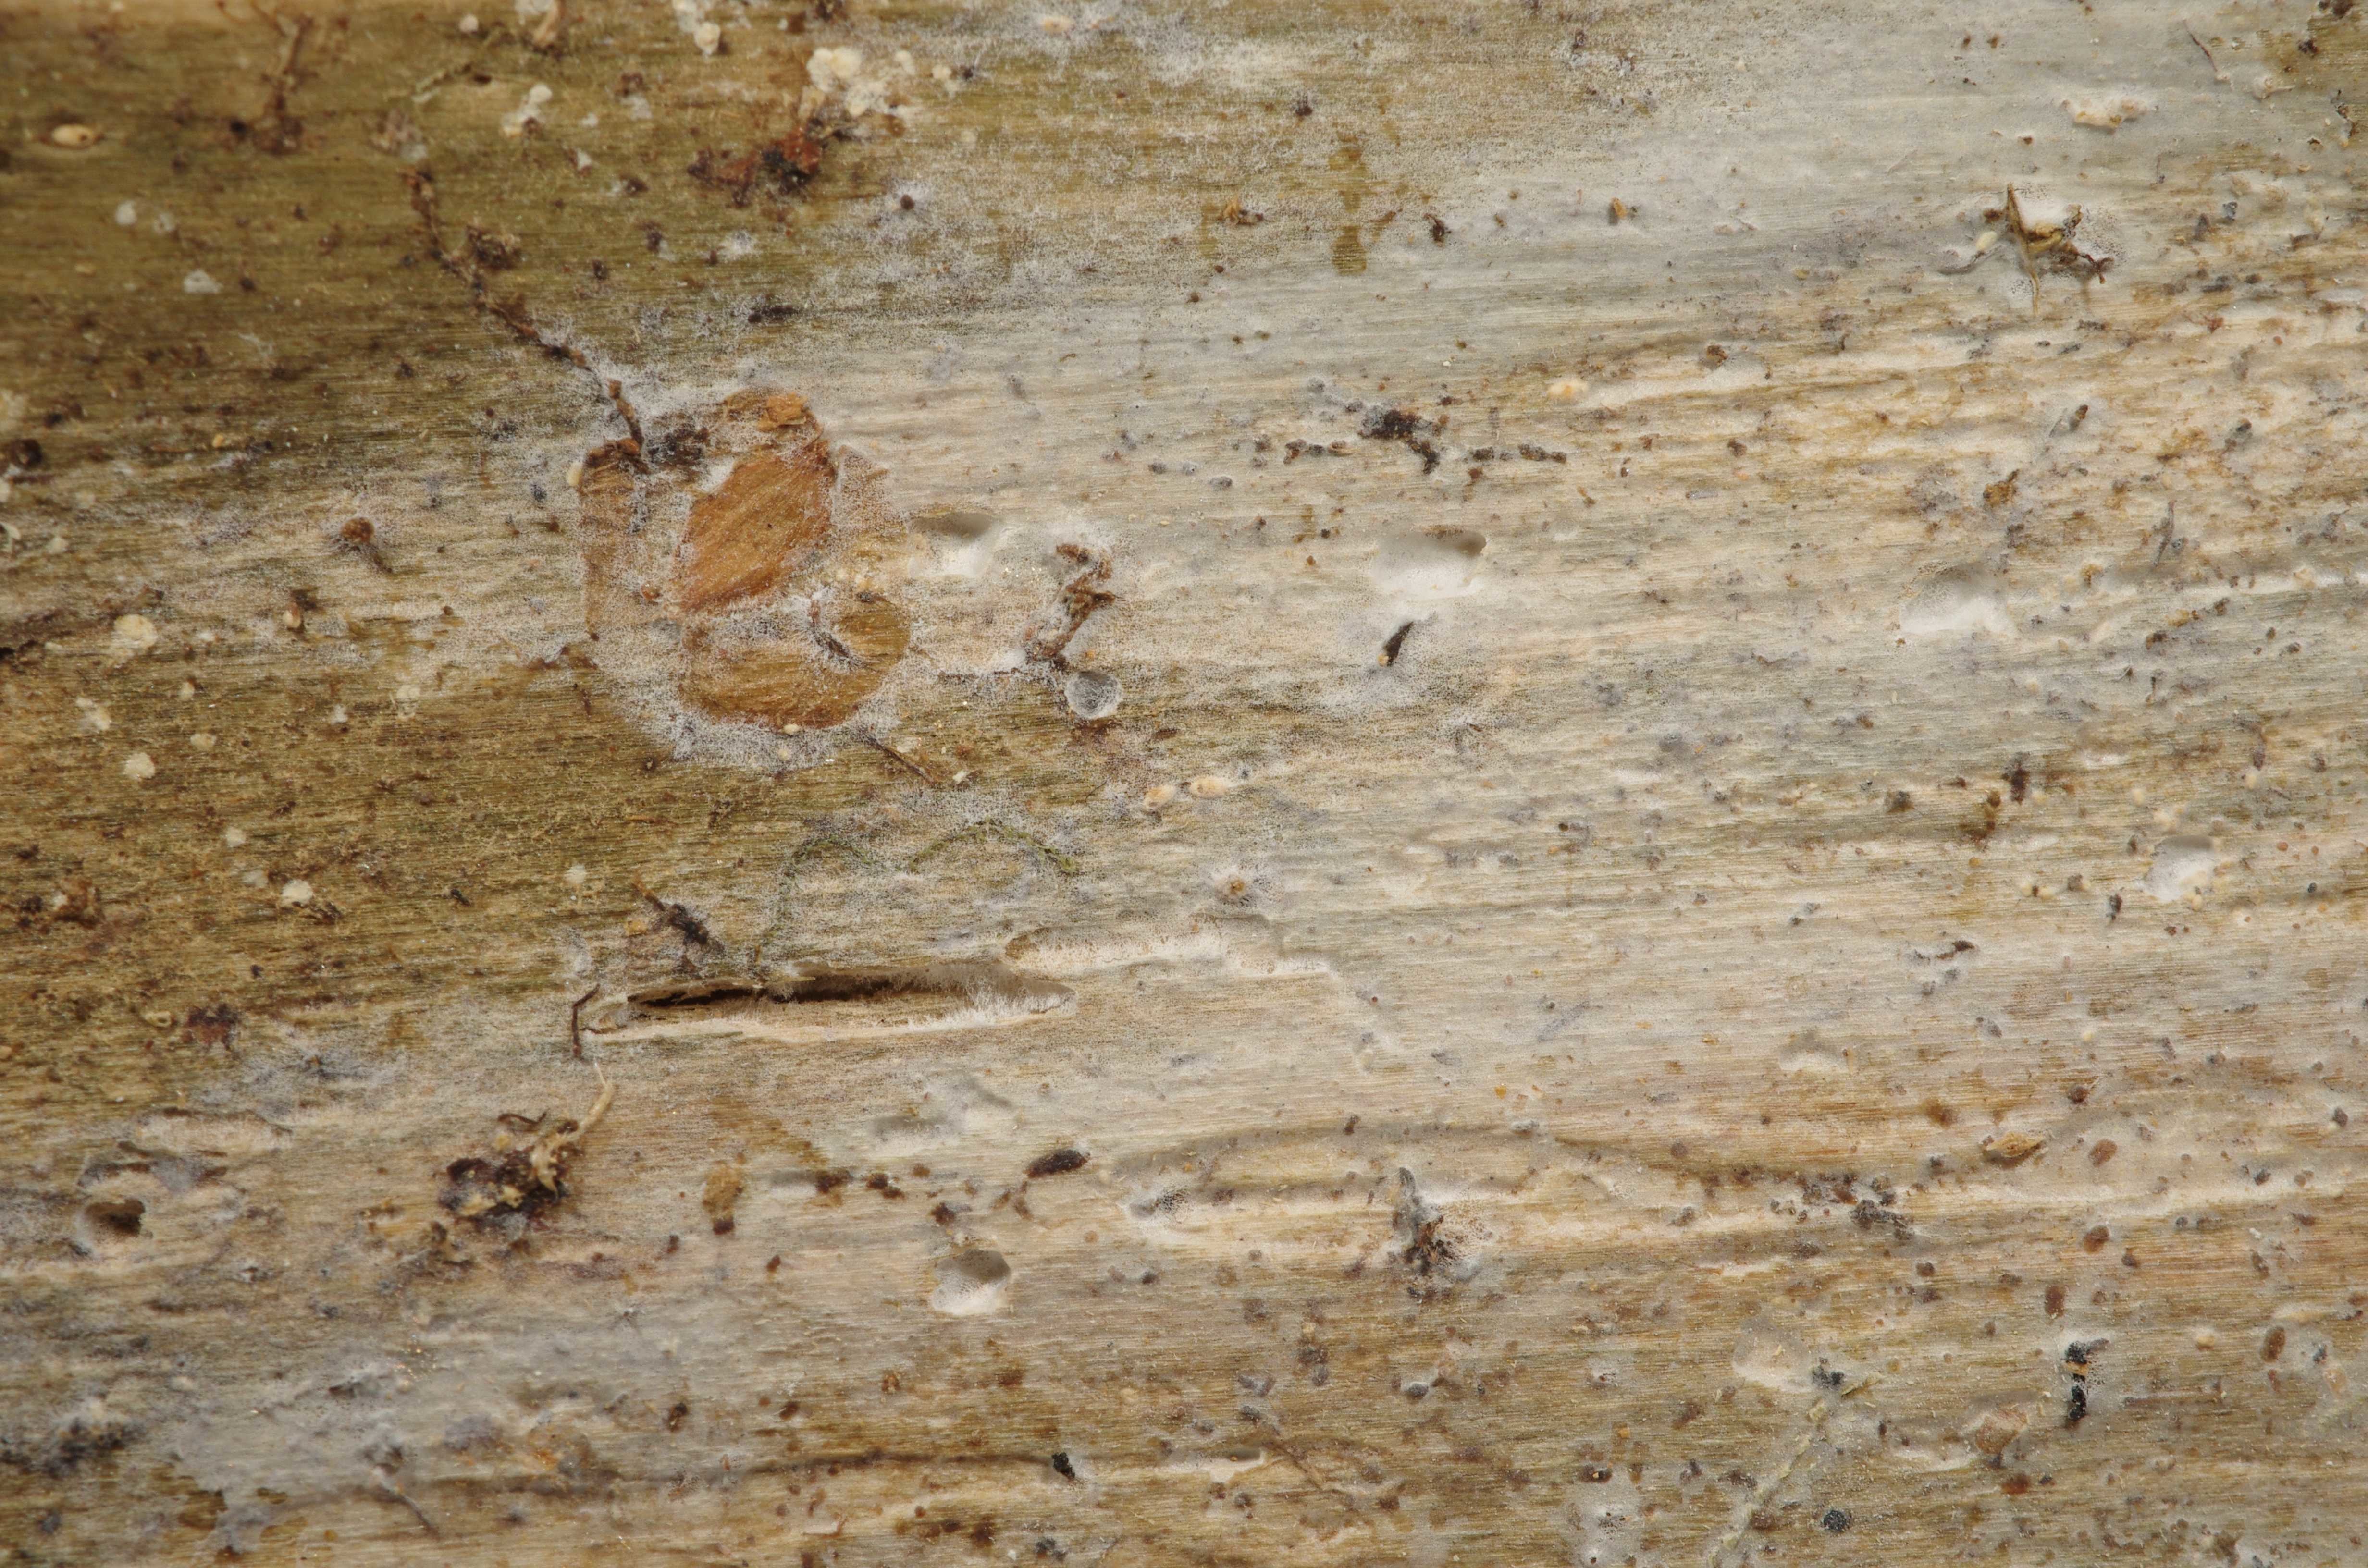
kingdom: Fungi
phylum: Basidiomycota
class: Agaricomycetes
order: Polyporales
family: Steccherinaceae
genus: Cabalodontia
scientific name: Cabalodontia subcretacea
